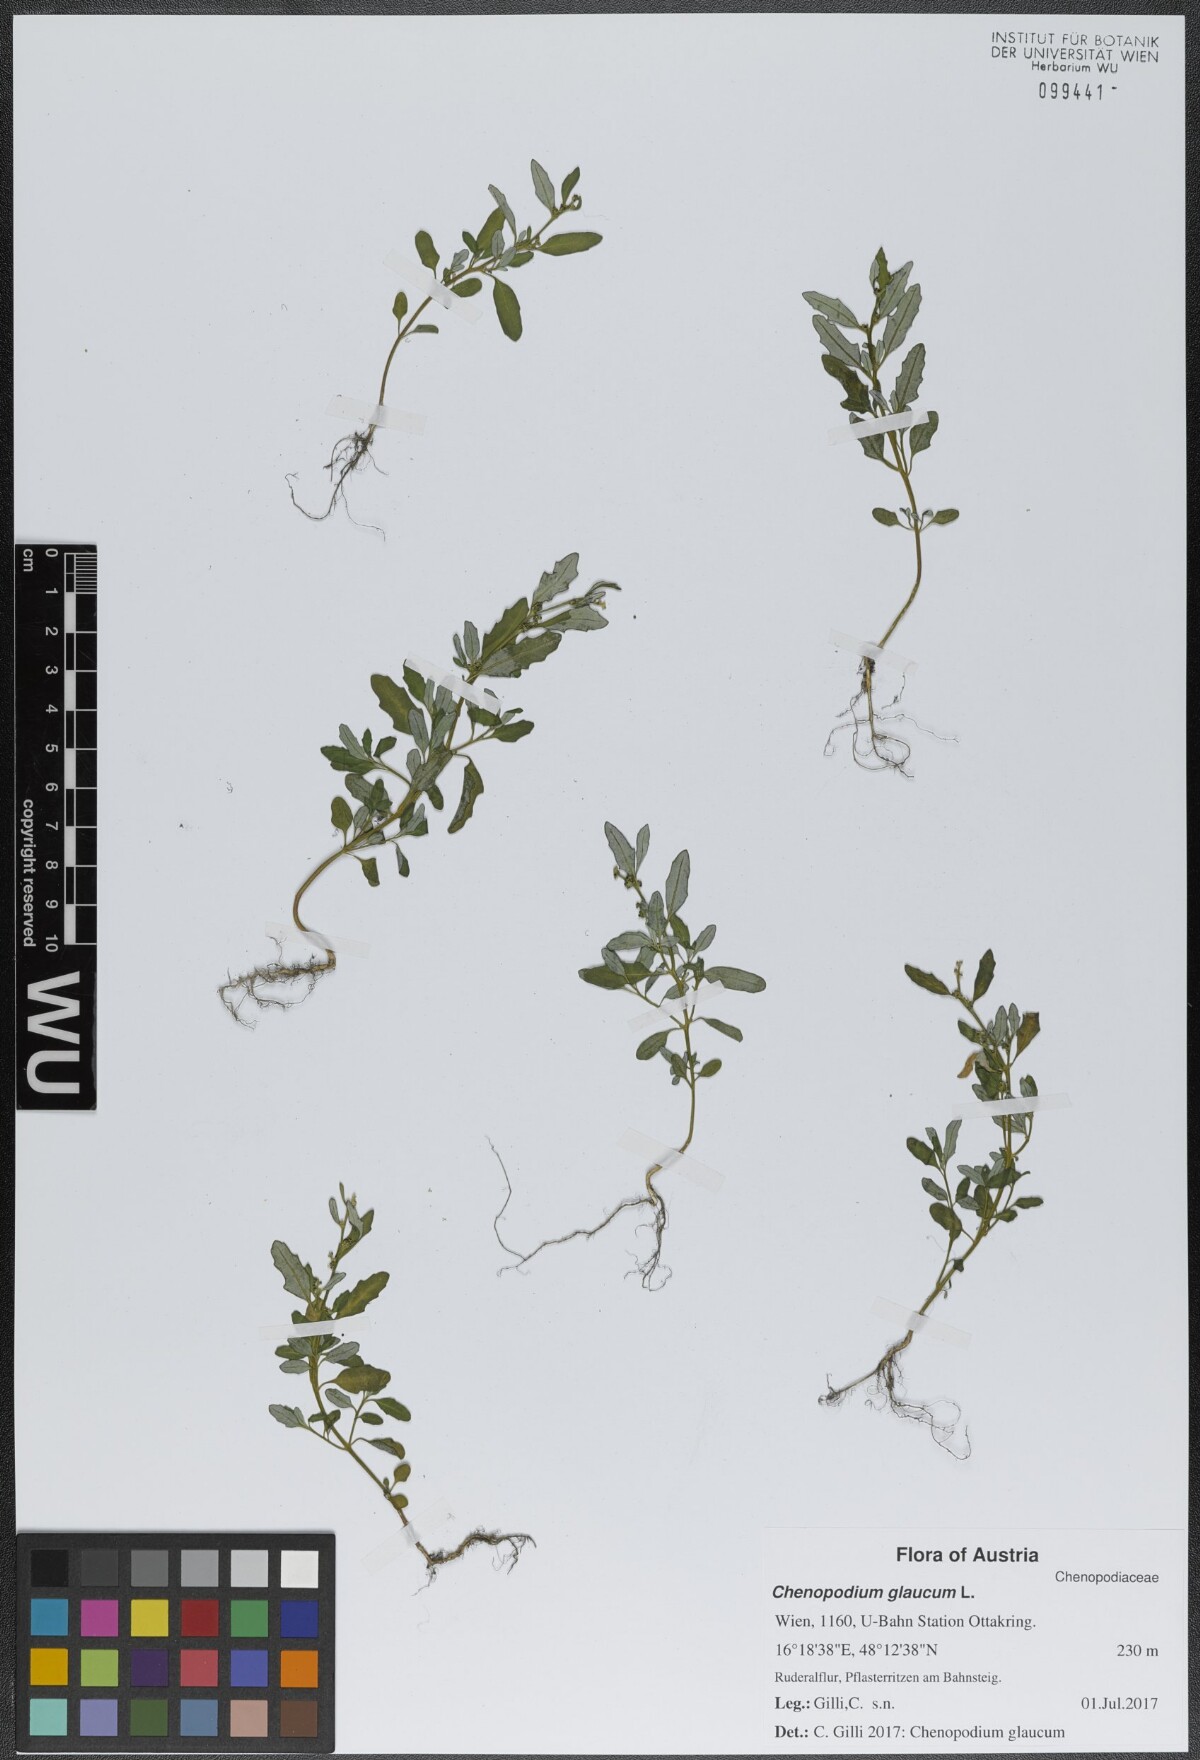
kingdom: Plantae
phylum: Tracheophyta
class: Magnoliopsida
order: Caryophyllales
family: Amaranthaceae
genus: Oxybasis
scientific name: Oxybasis glauca
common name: Glaucous goosefoot
